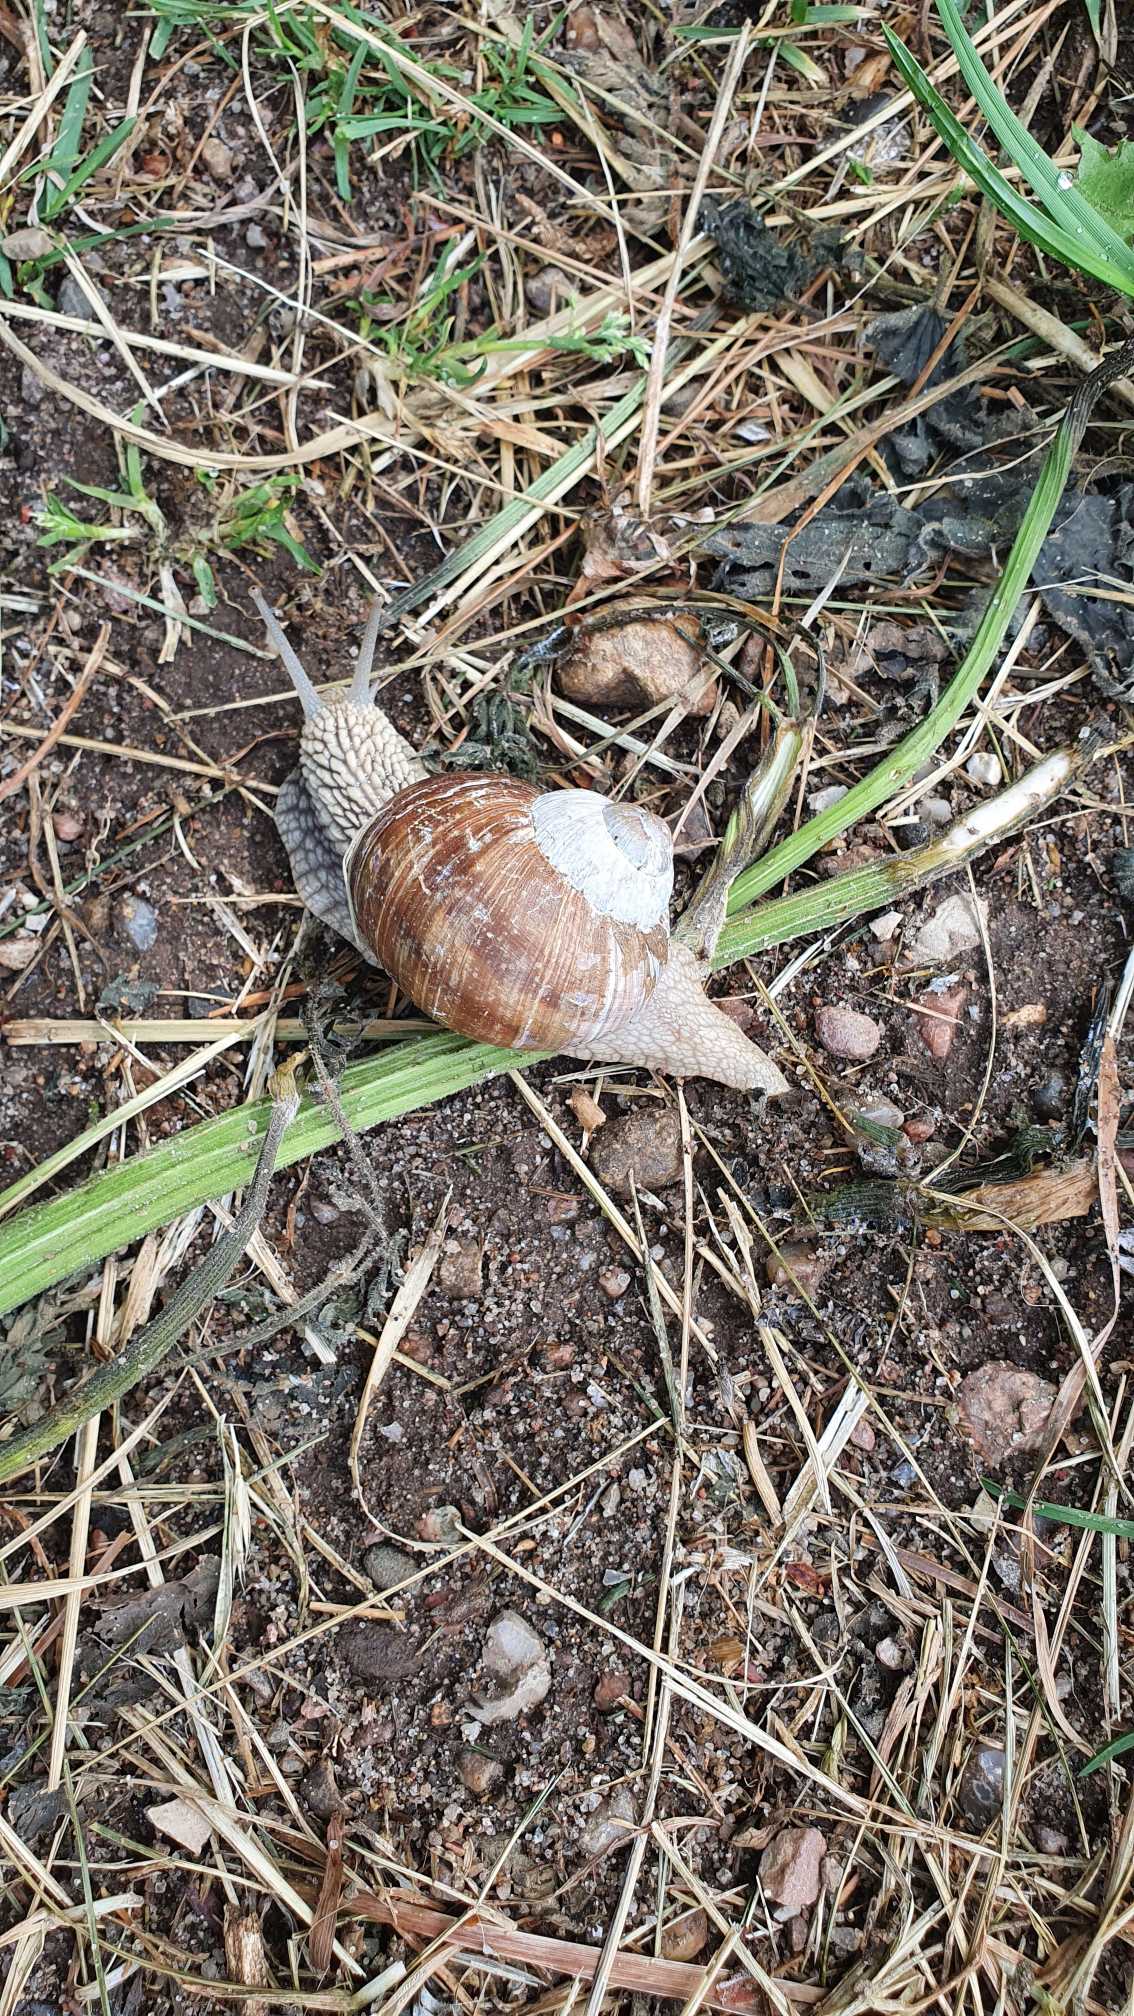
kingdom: Animalia
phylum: Mollusca
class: Gastropoda
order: Stylommatophora
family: Helicidae
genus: Helix
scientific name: Helix pomatia
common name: Vinbjergsnegl
